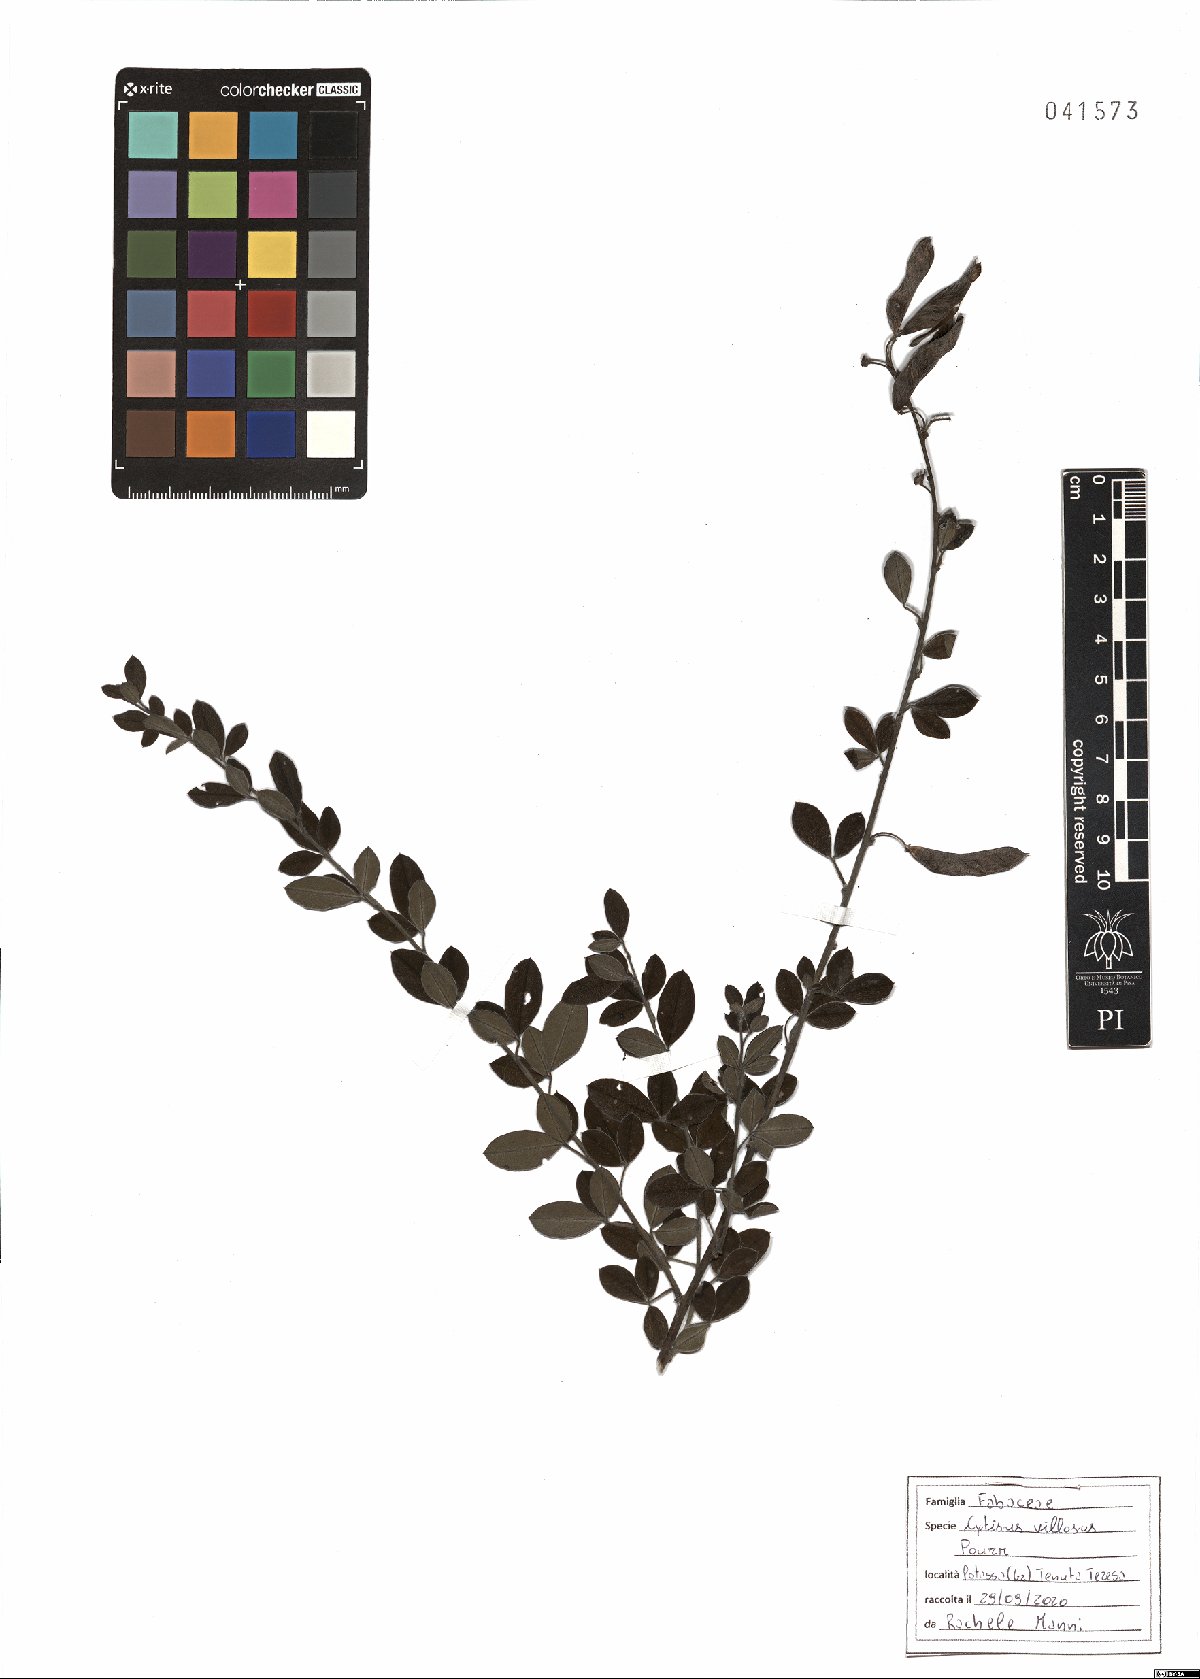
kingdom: Plantae
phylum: Tracheophyta
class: Magnoliopsida
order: Fabales
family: Fabaceae
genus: Cytisus
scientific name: Cytisus villosus
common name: Hairybroom
